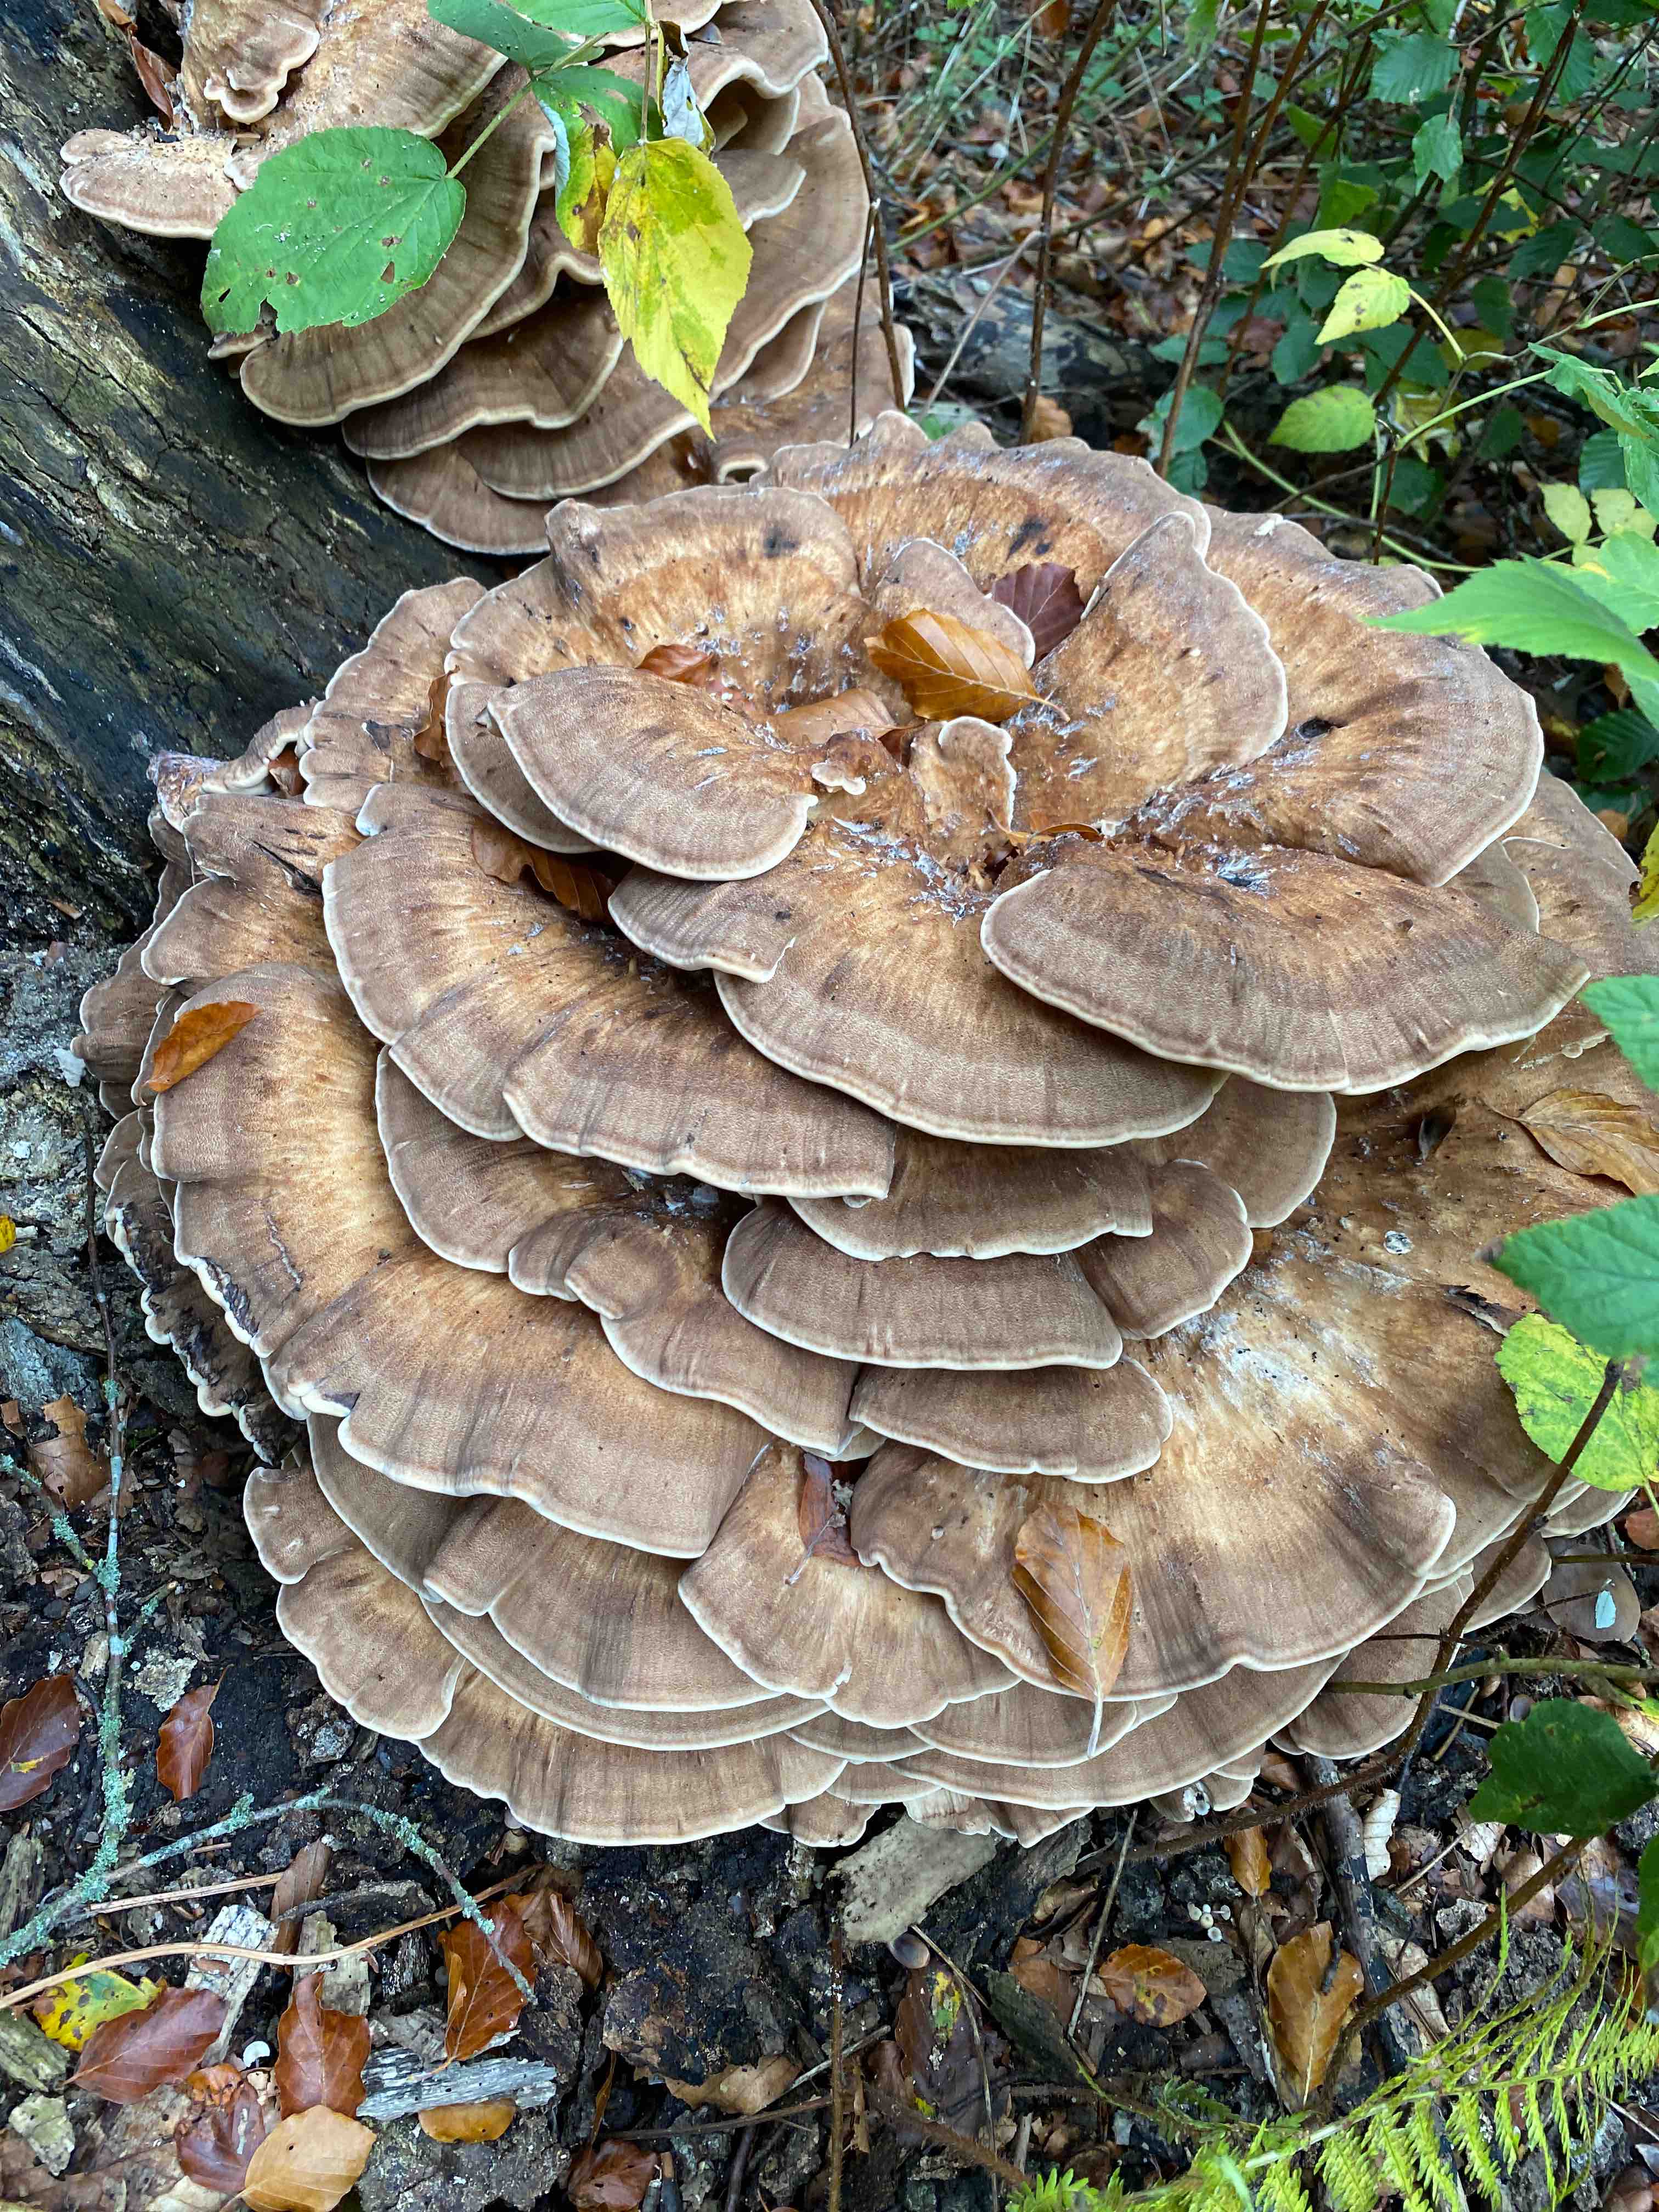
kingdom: Fungi
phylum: Basidiomycota
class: Agaricomycetes
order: Polyporales
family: Meripilaceae
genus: Meripilus
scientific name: Meripilus giganteus
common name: kæmpeporesvamp
